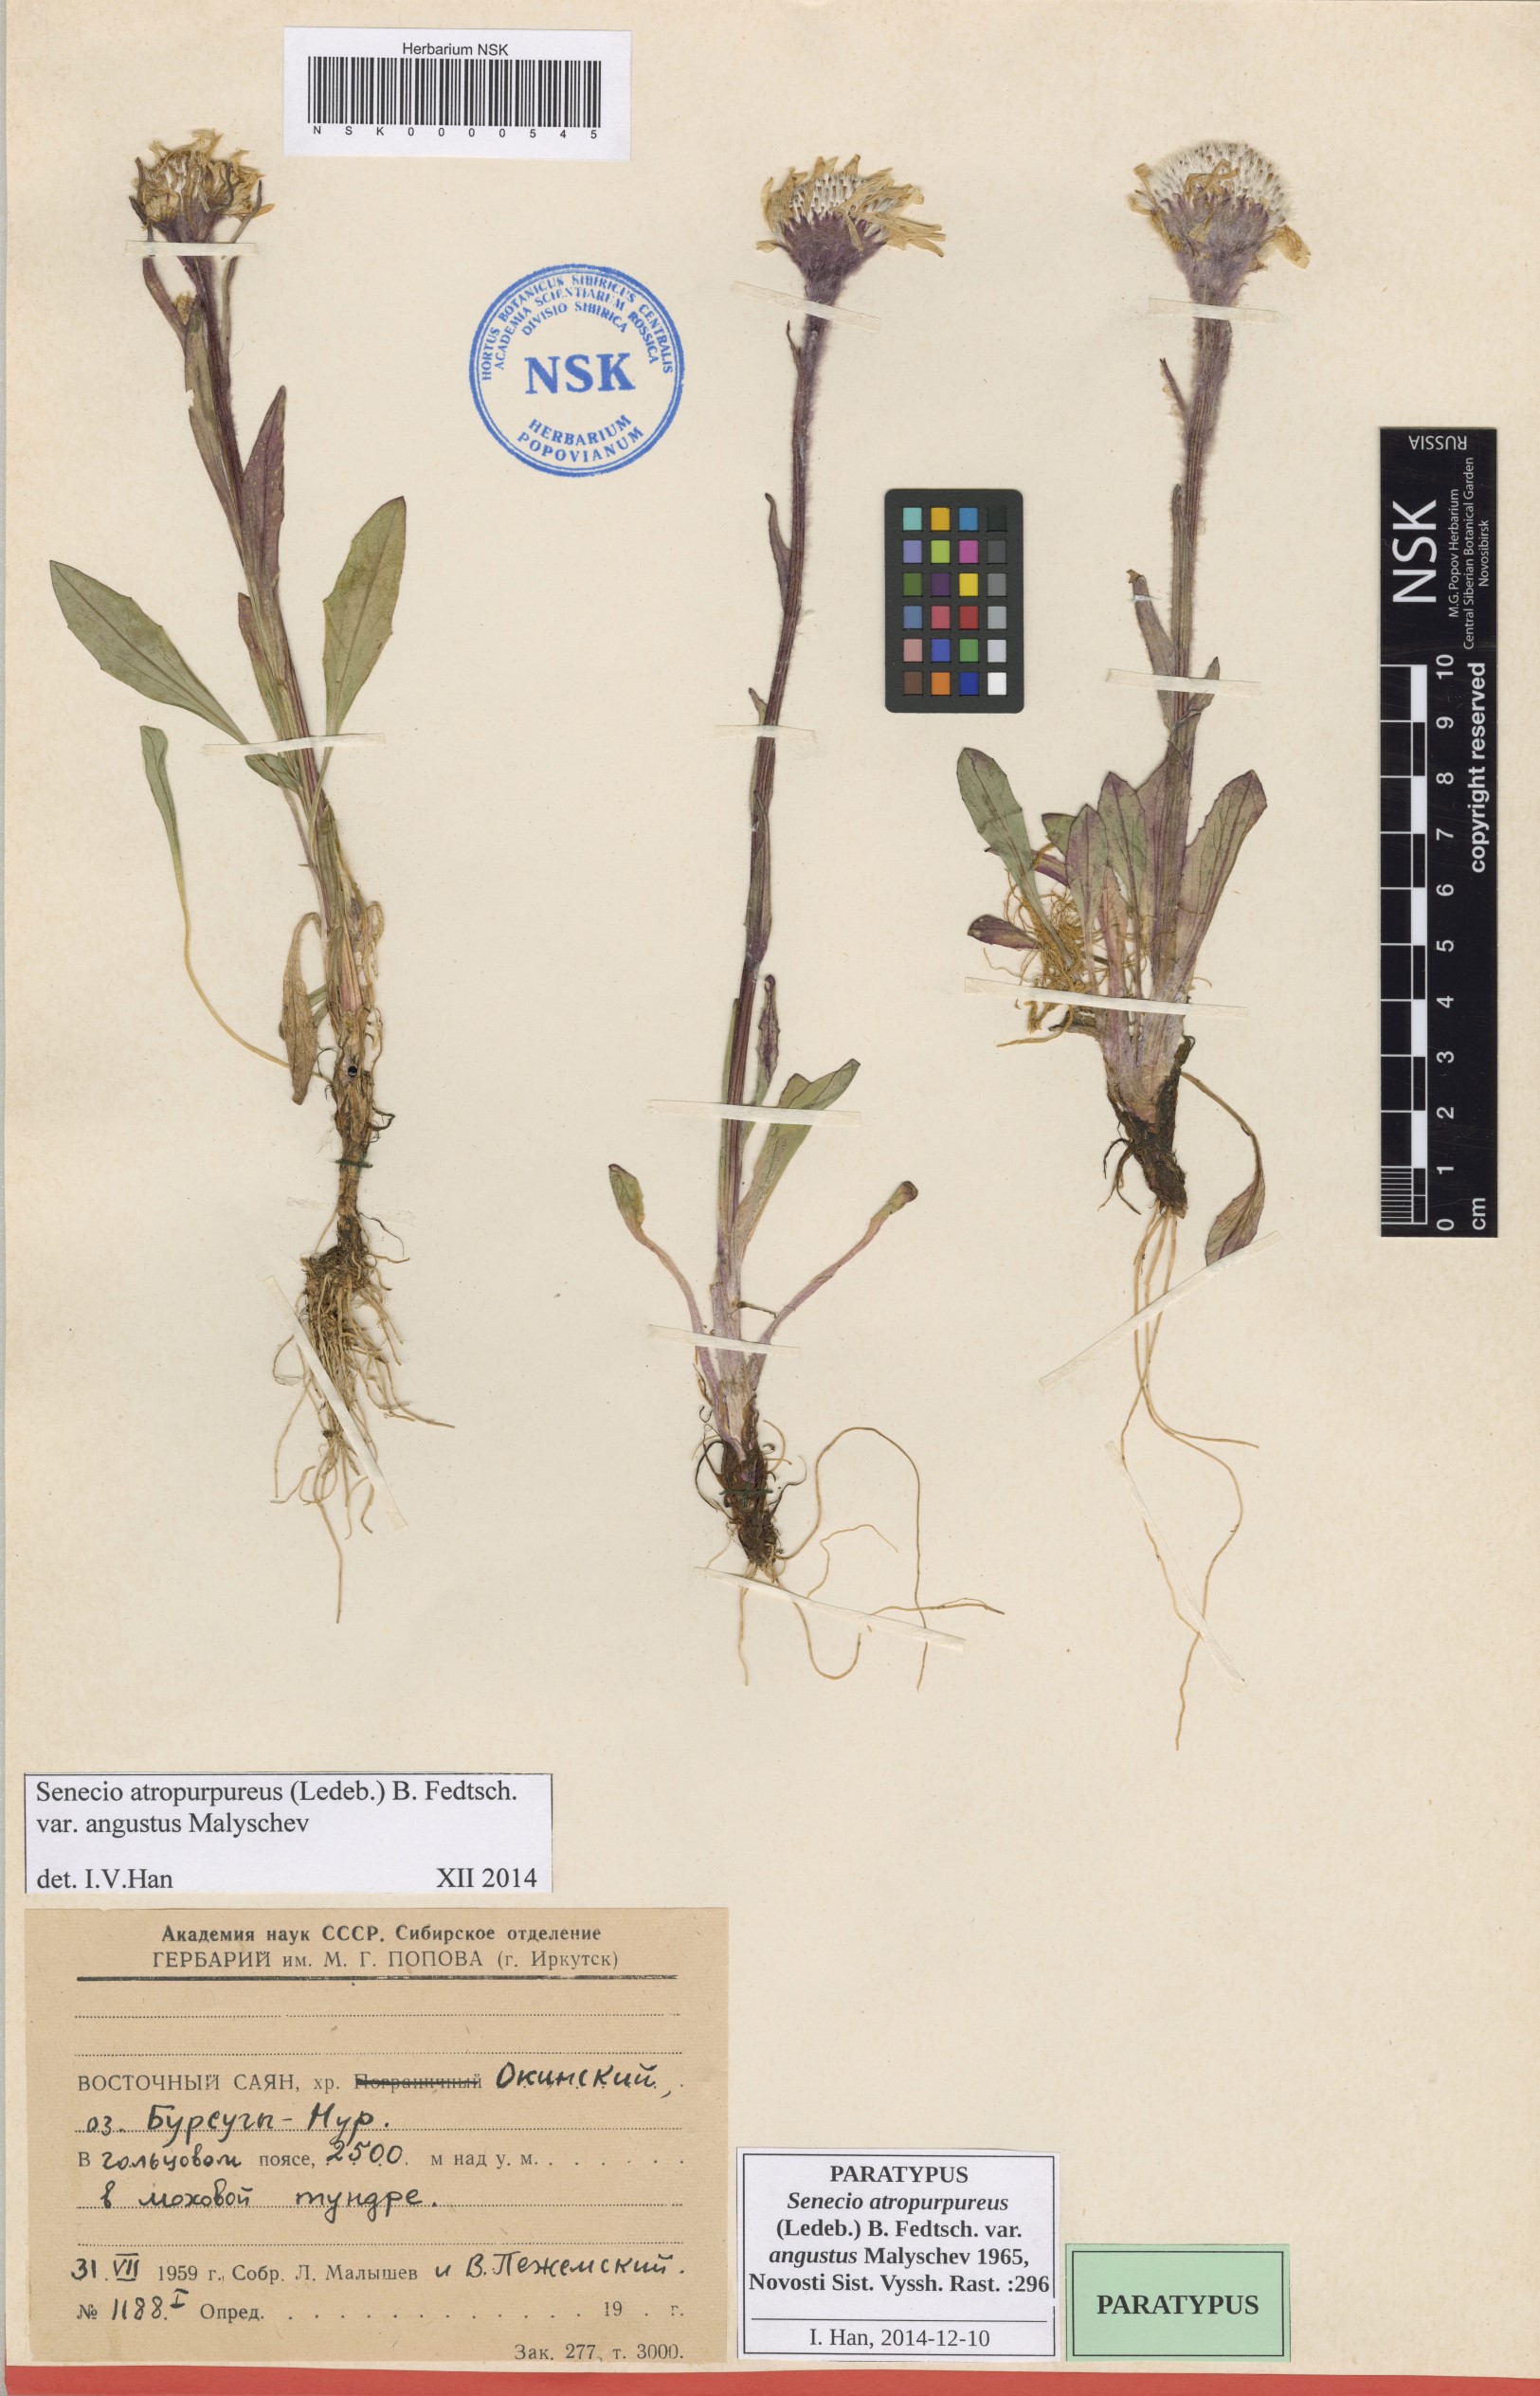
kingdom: Plantae
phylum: Tracheophyta
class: Magnoliopsida
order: Asterales
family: Asteraceae
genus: Tephroseris
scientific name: Tephroseris integrifolia
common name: Field fleawort
